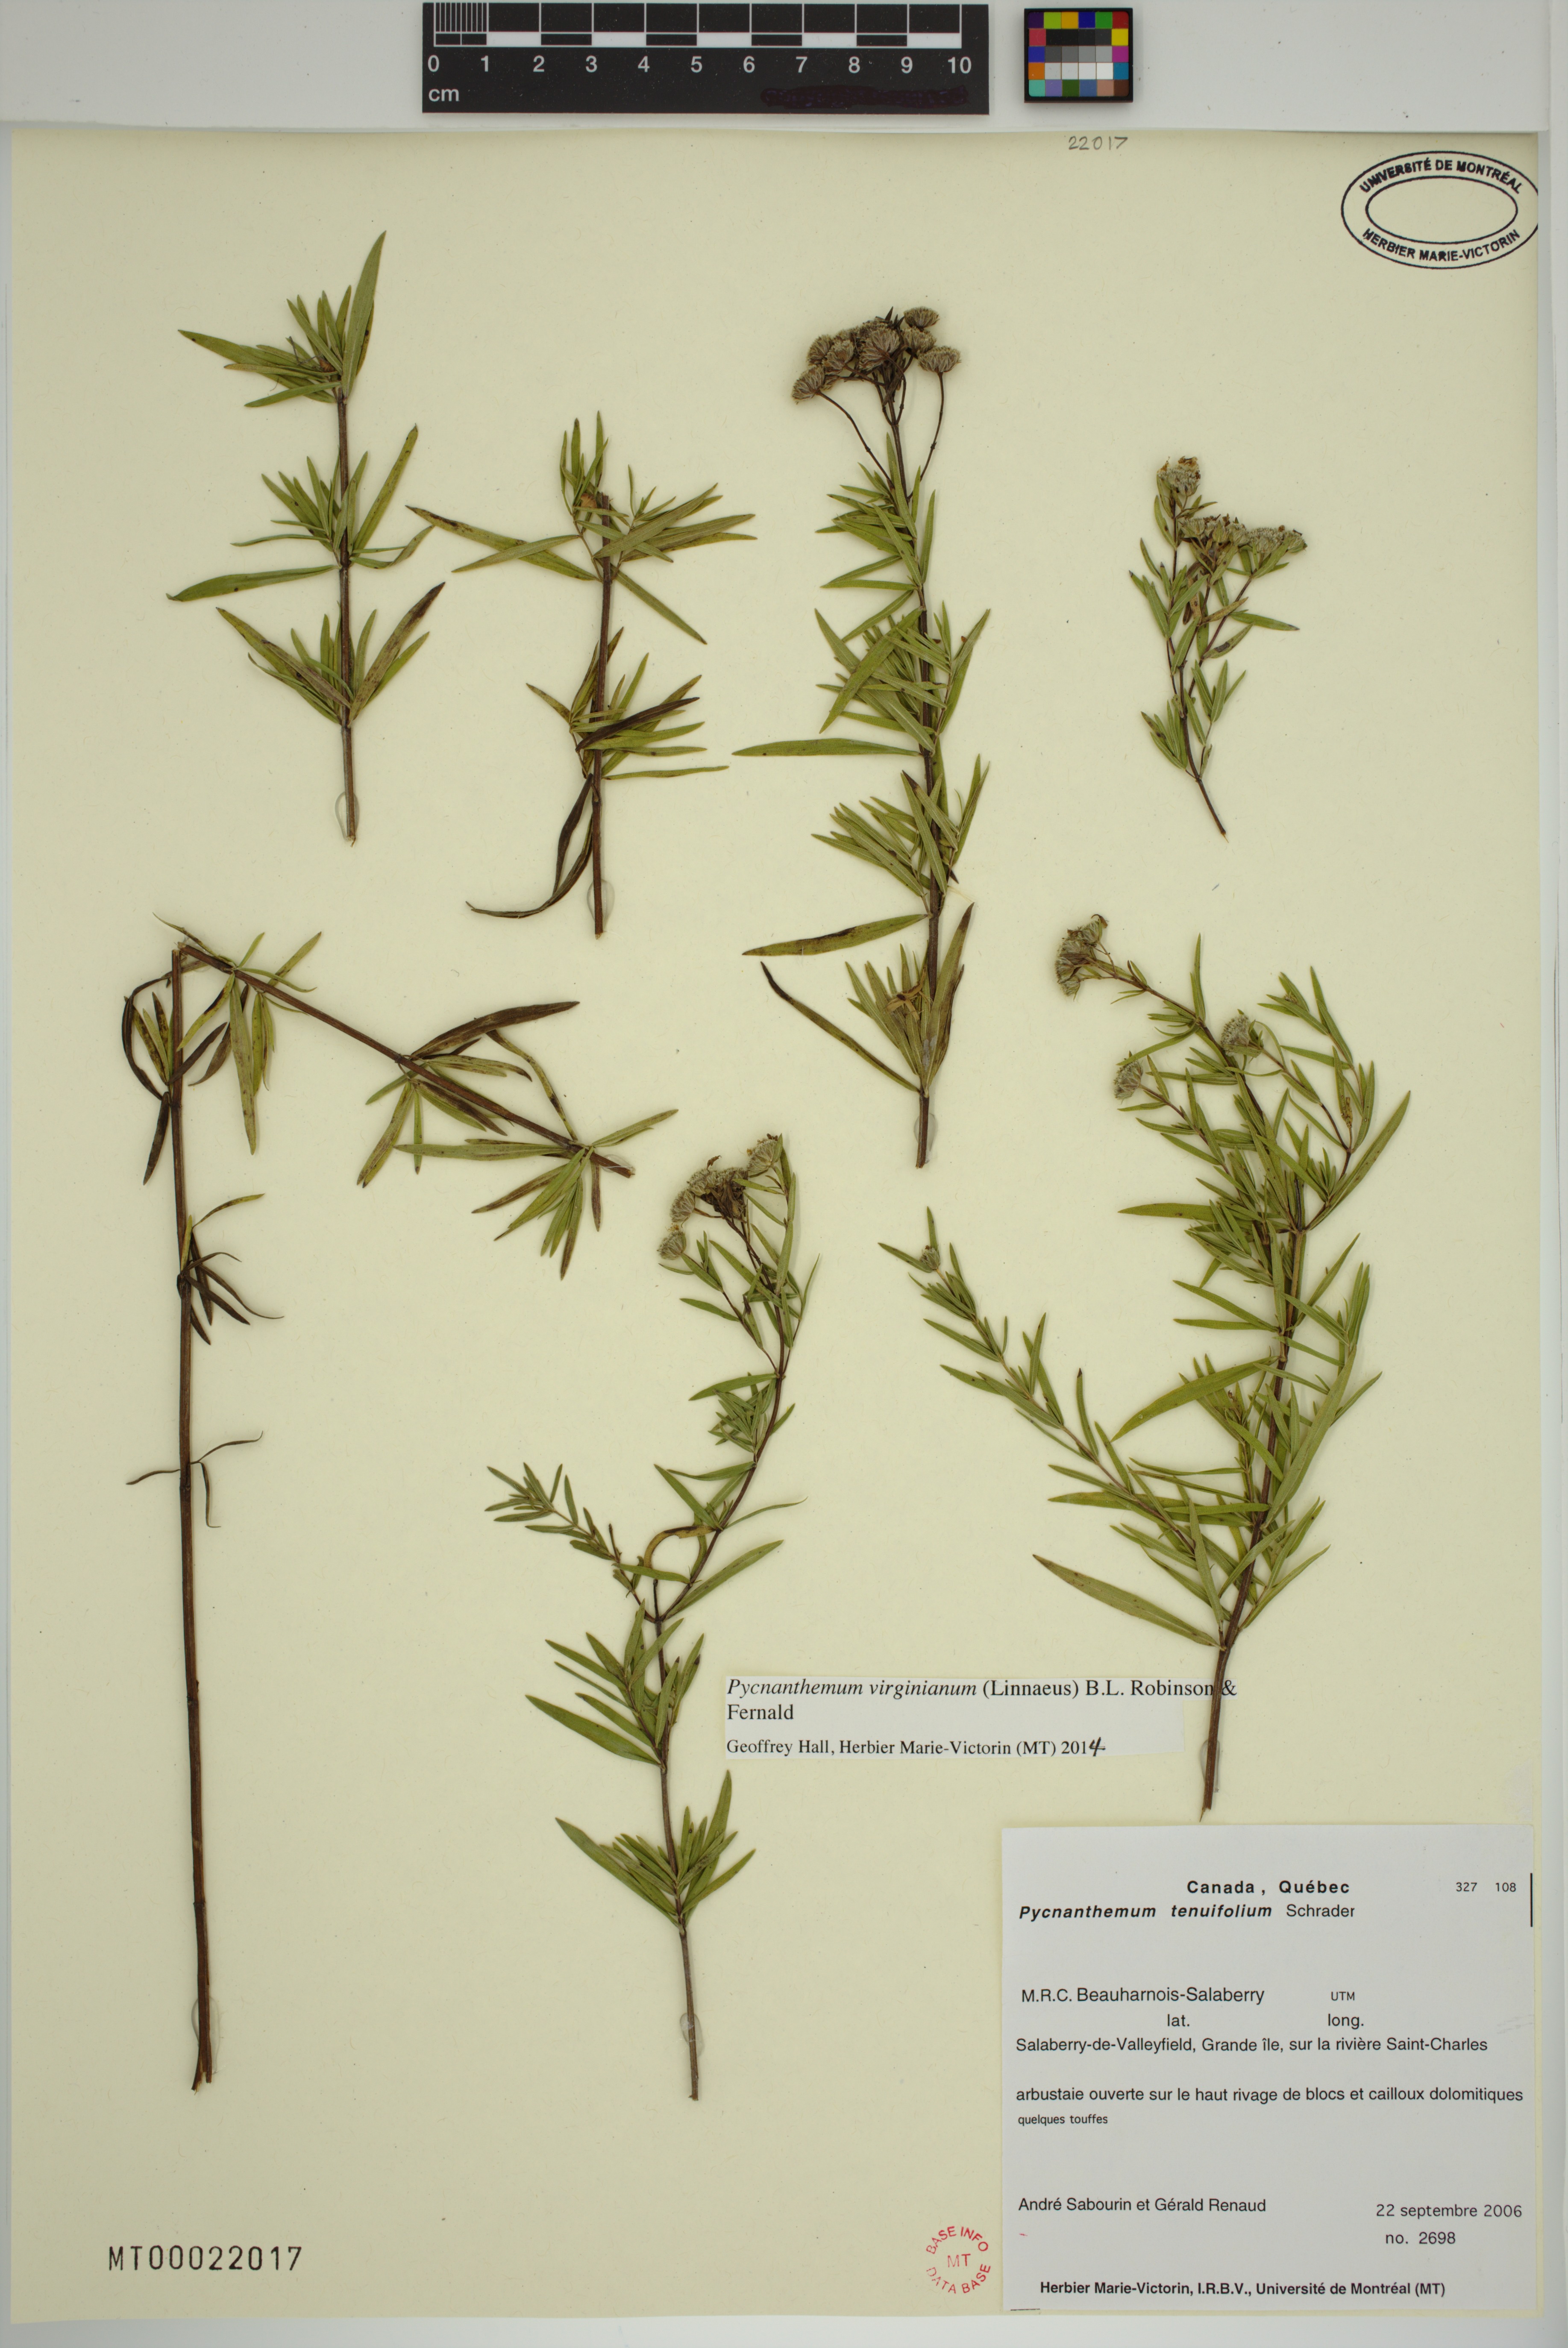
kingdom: Plantae
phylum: Tracheophyta
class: Magnoliopsida
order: Lamiales
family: Lamiaceae
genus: Pycnanthemum
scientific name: Pycnanthemum virginianum
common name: Virginia mountain-mint
